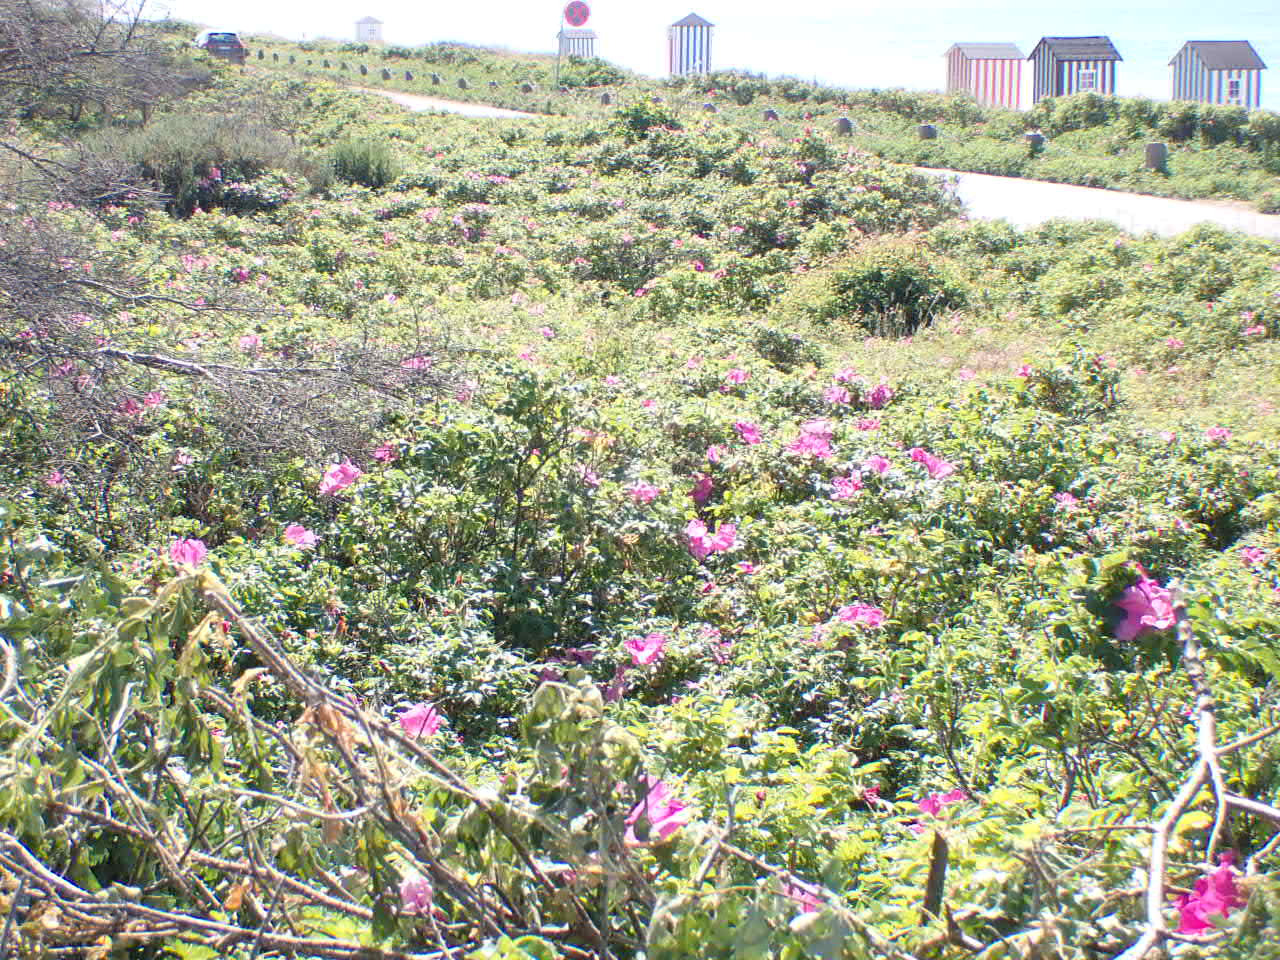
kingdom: Plantae
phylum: Tracheophyta
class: Magnoliopsida
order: Rosales
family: Rosaceae
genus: Rosa
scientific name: Rosa rugosa
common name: Rynket rose
